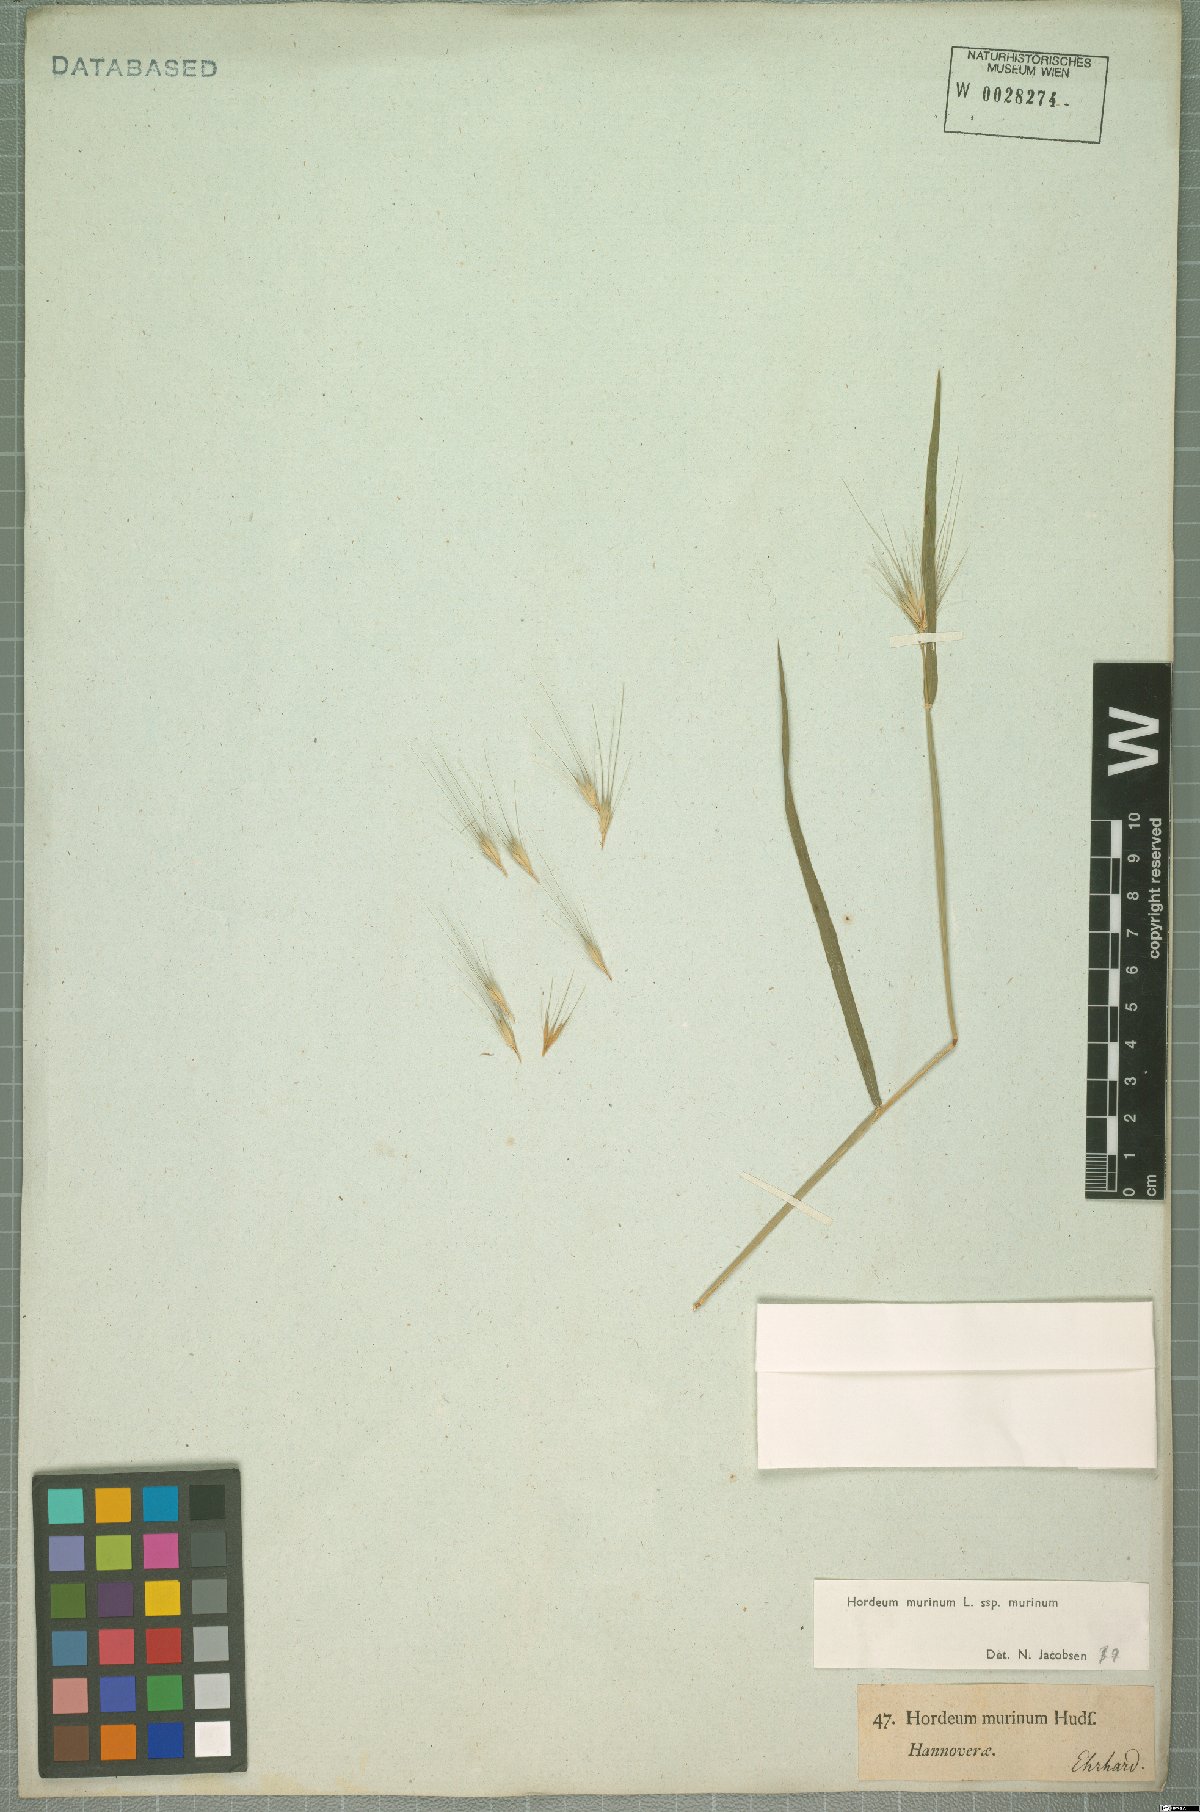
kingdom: Plantae
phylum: Tracheophyta
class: Liliopsida
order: Poales
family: Poaceae
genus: Hordeum
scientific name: Hordeum murinum
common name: Wall barley
